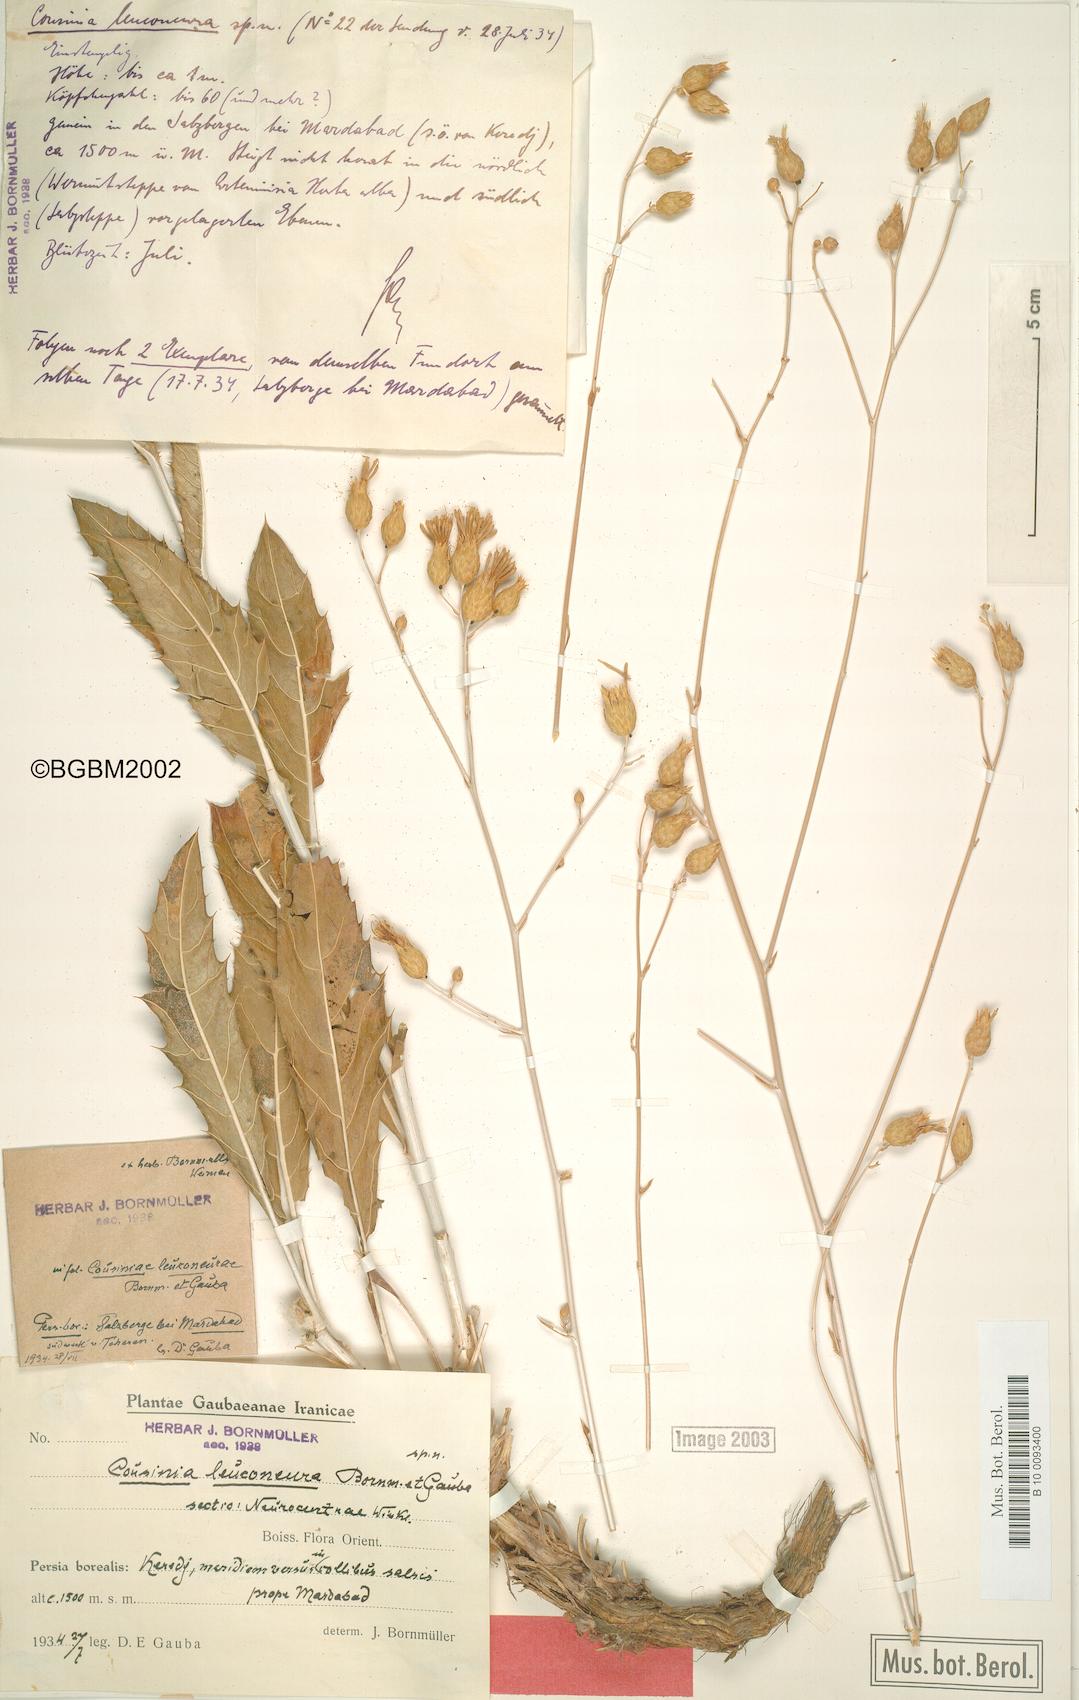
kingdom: Plantae
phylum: Tracheophyta
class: Magnoliopsida
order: Asterales
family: Asteraceae
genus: Cousinia
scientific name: Cousinia deserti
